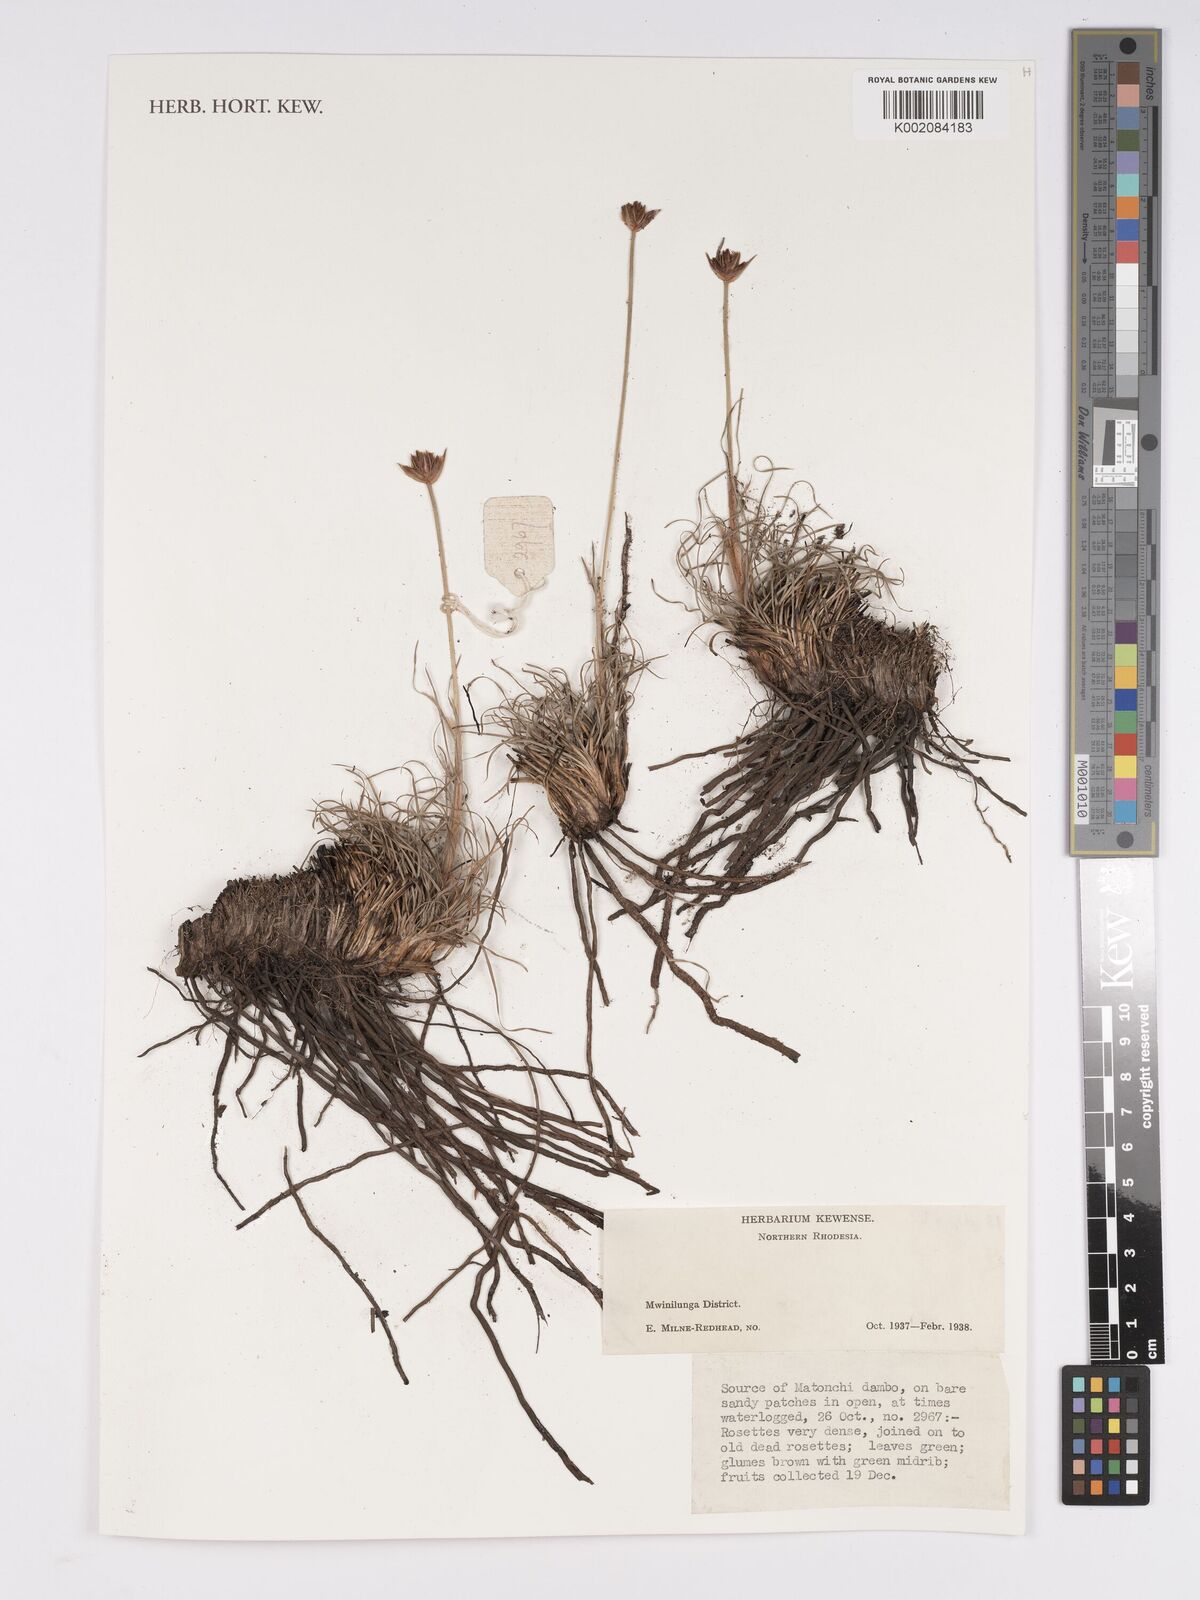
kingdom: Plantae
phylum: Tracheophyta
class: Liliopsida
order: Poales
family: Cyperaceae
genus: Bulbostylis
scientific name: Bulbostylis
